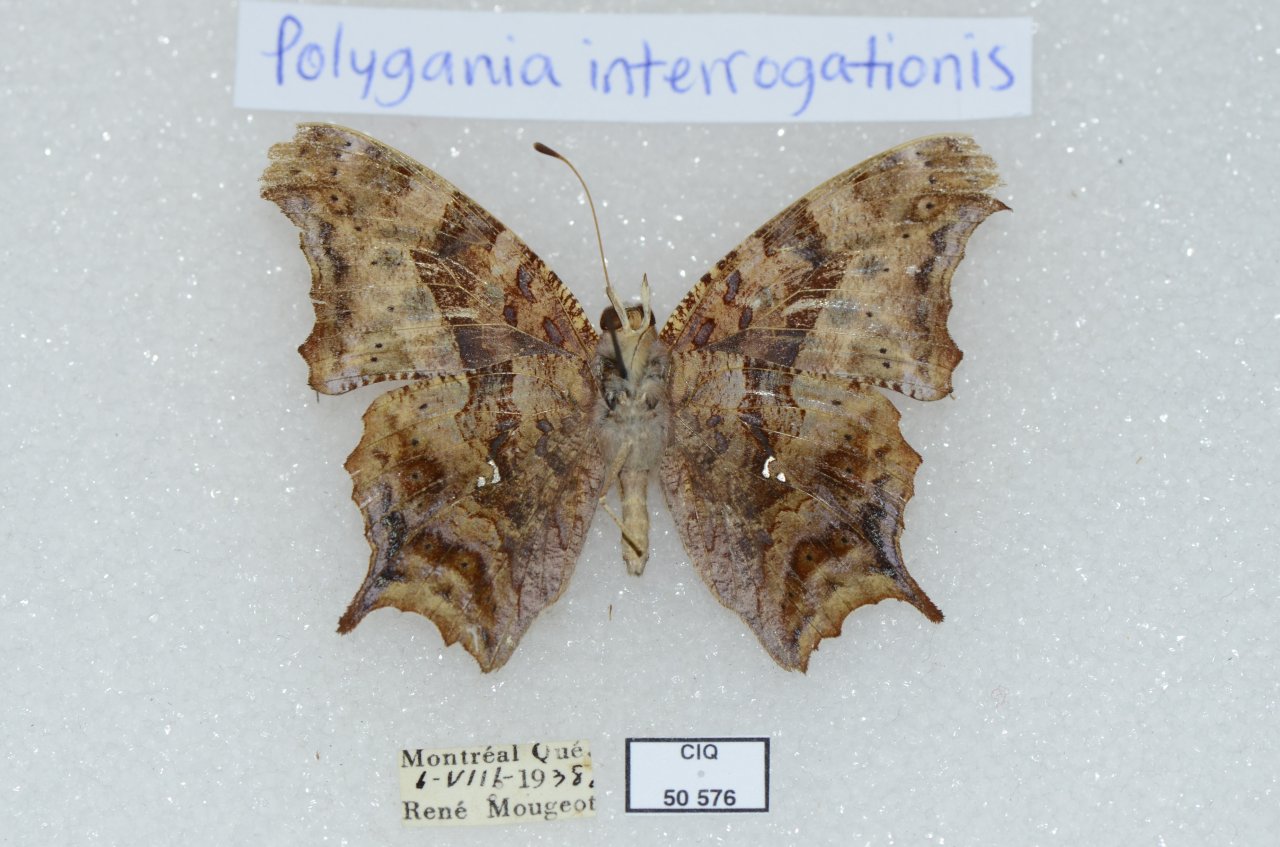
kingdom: Animalia
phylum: Arthropoda
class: Insecta
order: Lepidoptera
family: Nymphalidae
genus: Polygonia
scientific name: Polygonia interrogationis
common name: Question Mark
